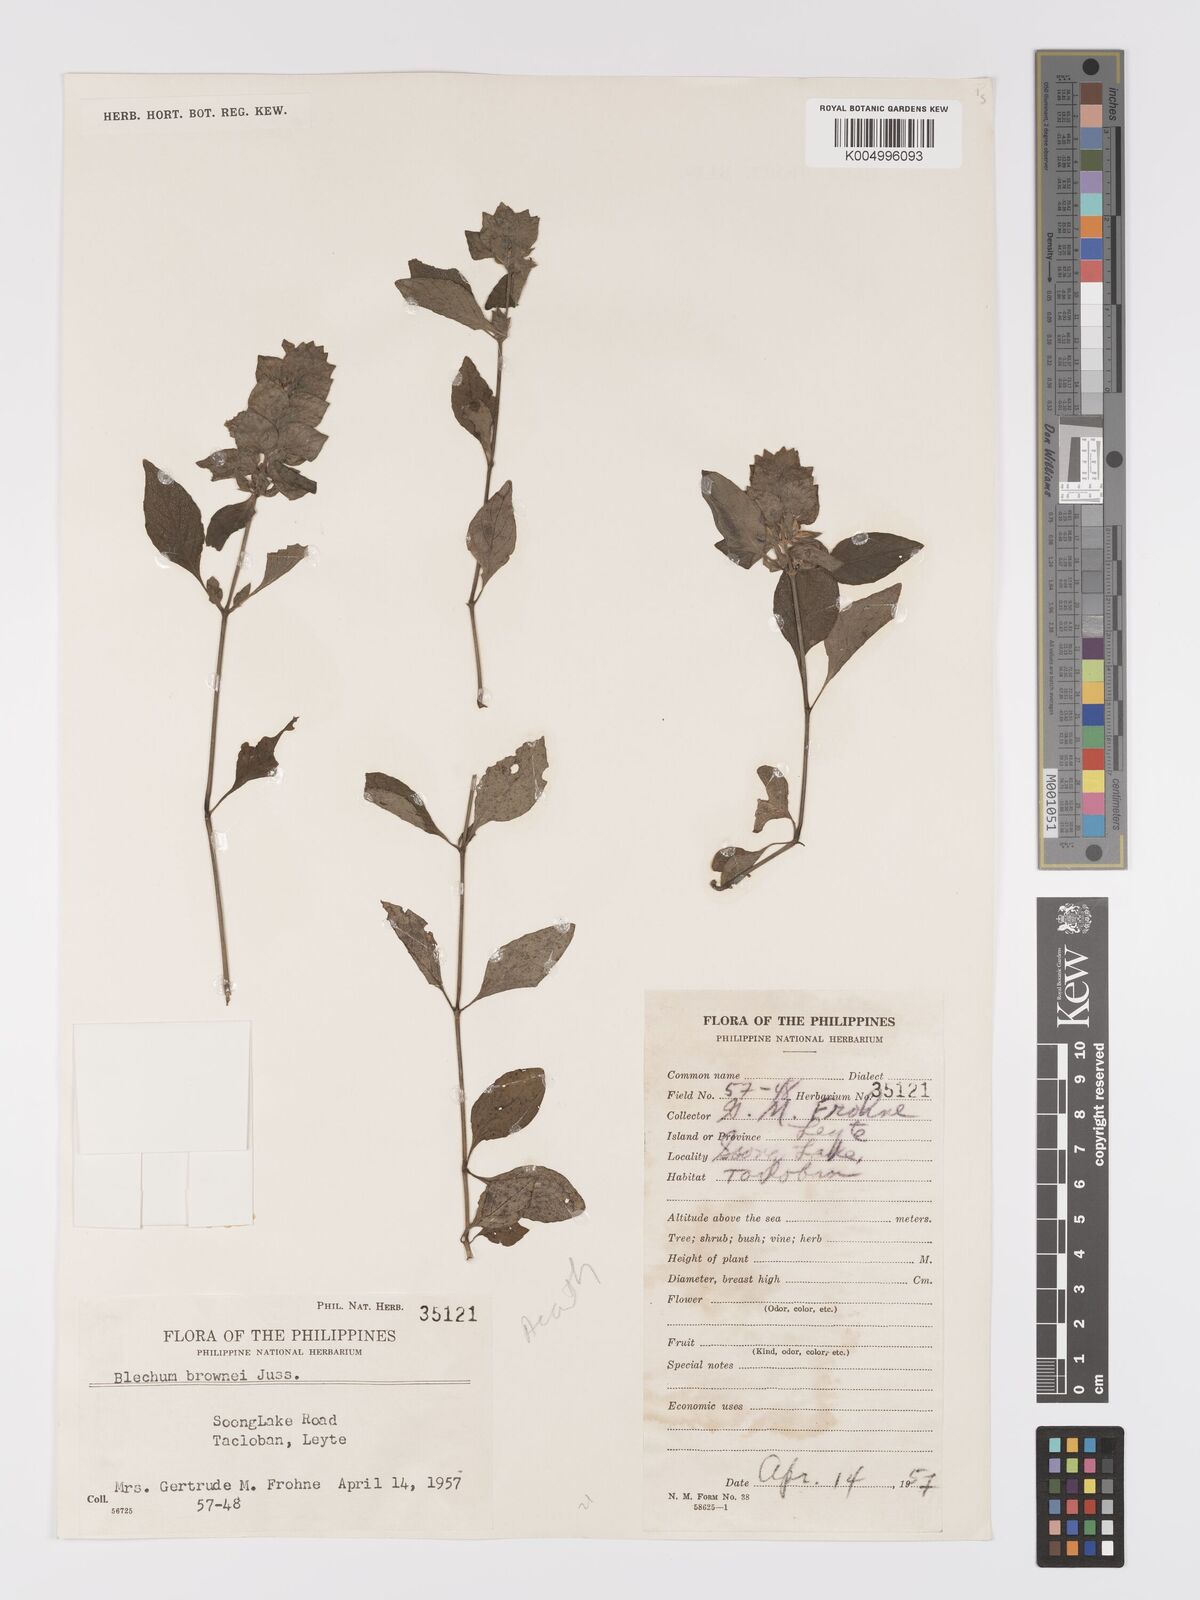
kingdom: Plantae
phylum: Tracheophyta
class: Magnoliopsida
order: Lamiales
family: Acanthaceae
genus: Ruellia
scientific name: Ruellia blechum
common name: Browne's blechum
